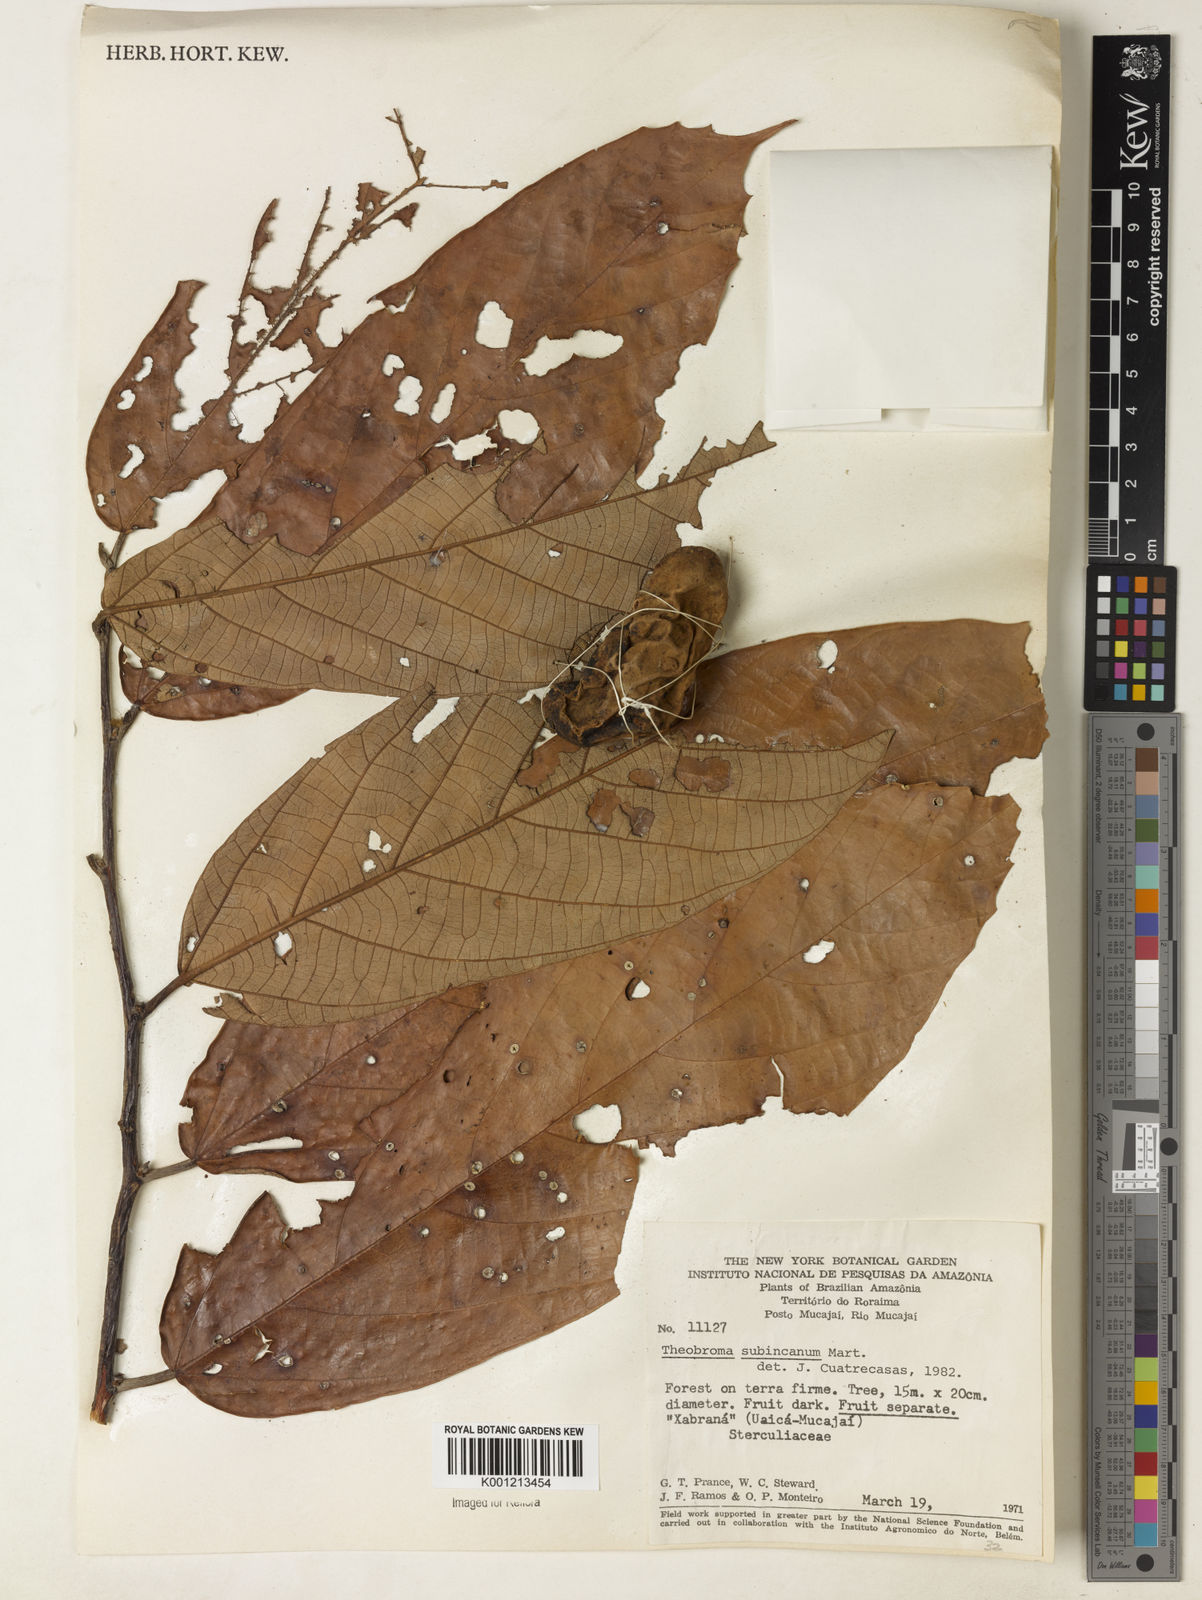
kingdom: Plantae
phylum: Tracheophyta
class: Magnoliopsida
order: Malvales
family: Malvaceae
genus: Theobroma
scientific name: Theobroma subincanum
